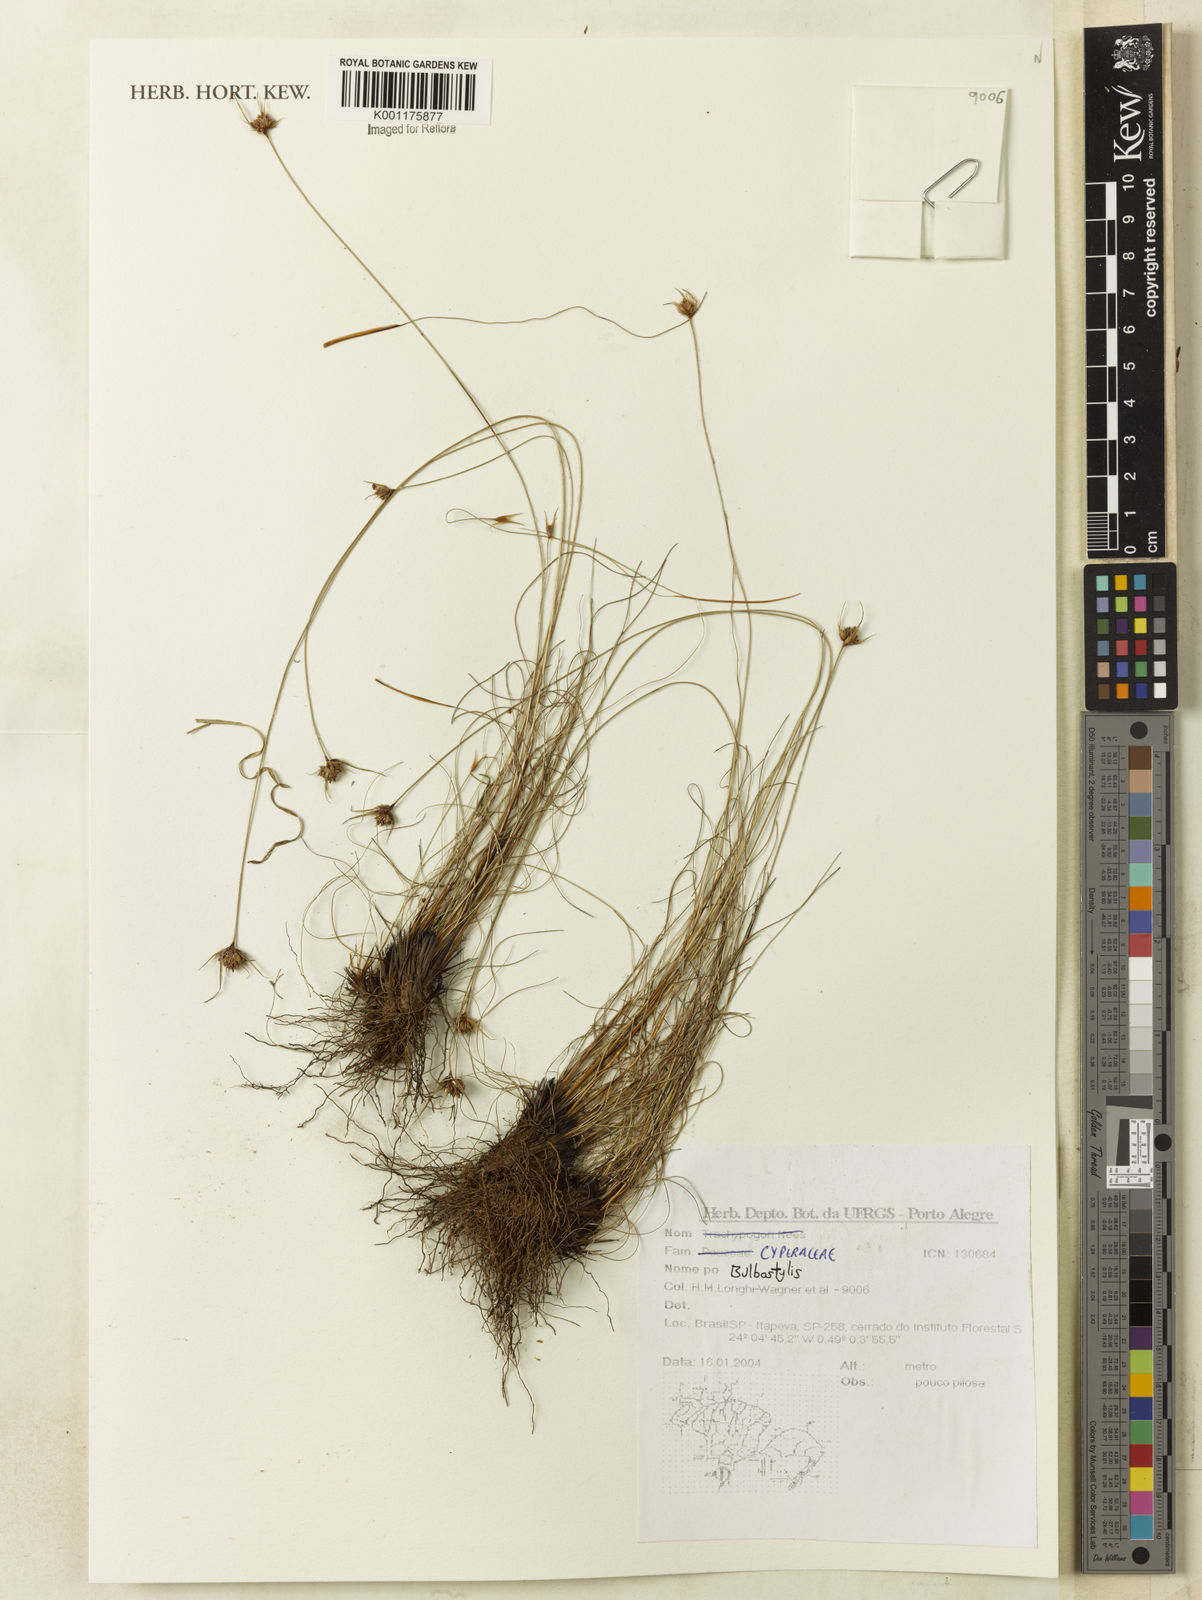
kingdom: Plantae
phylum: Tracheophyta
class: Liliopsida
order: Poales
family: Cyperaceae
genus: Bulbostylis
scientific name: Bulbostylis
